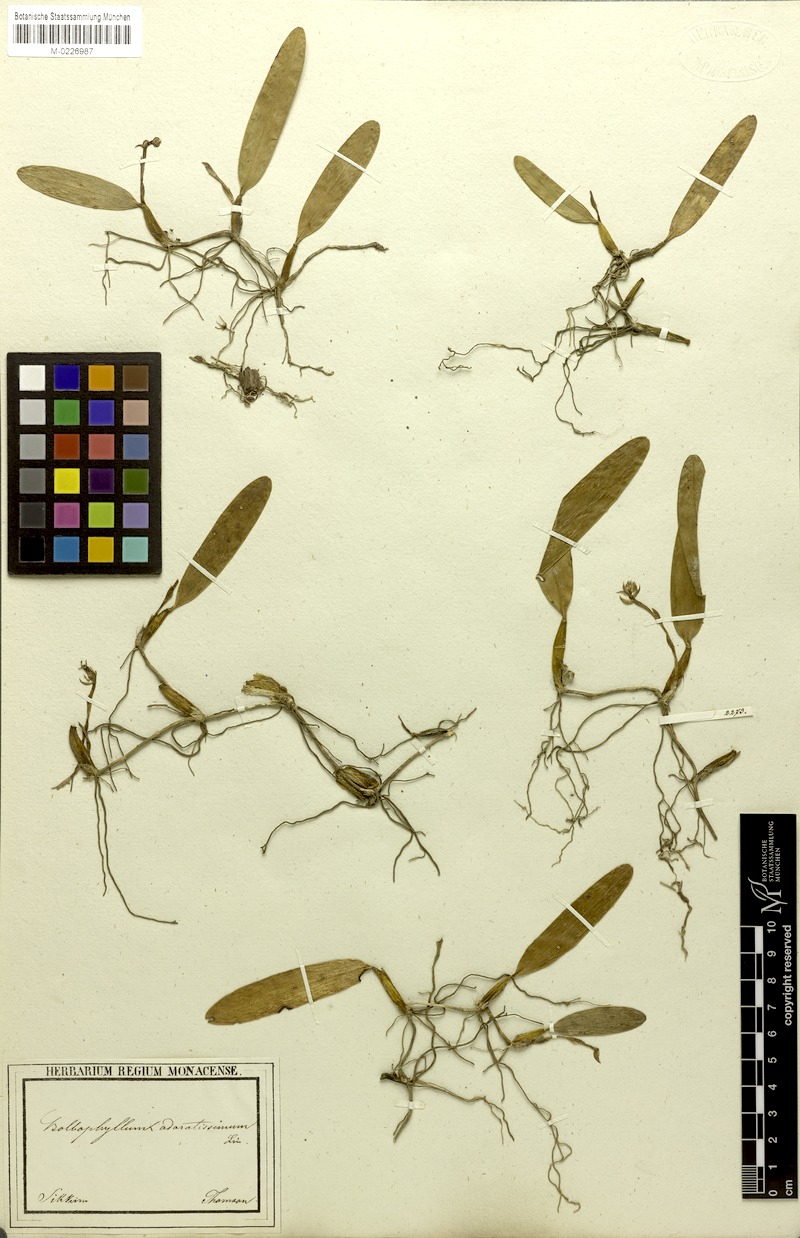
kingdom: Plantae
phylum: Tracheophyta
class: Liliopsida
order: Asparagales
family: Orchidaceae
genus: Bulbophyllum
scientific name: Bulbophyllum odoratissimum
